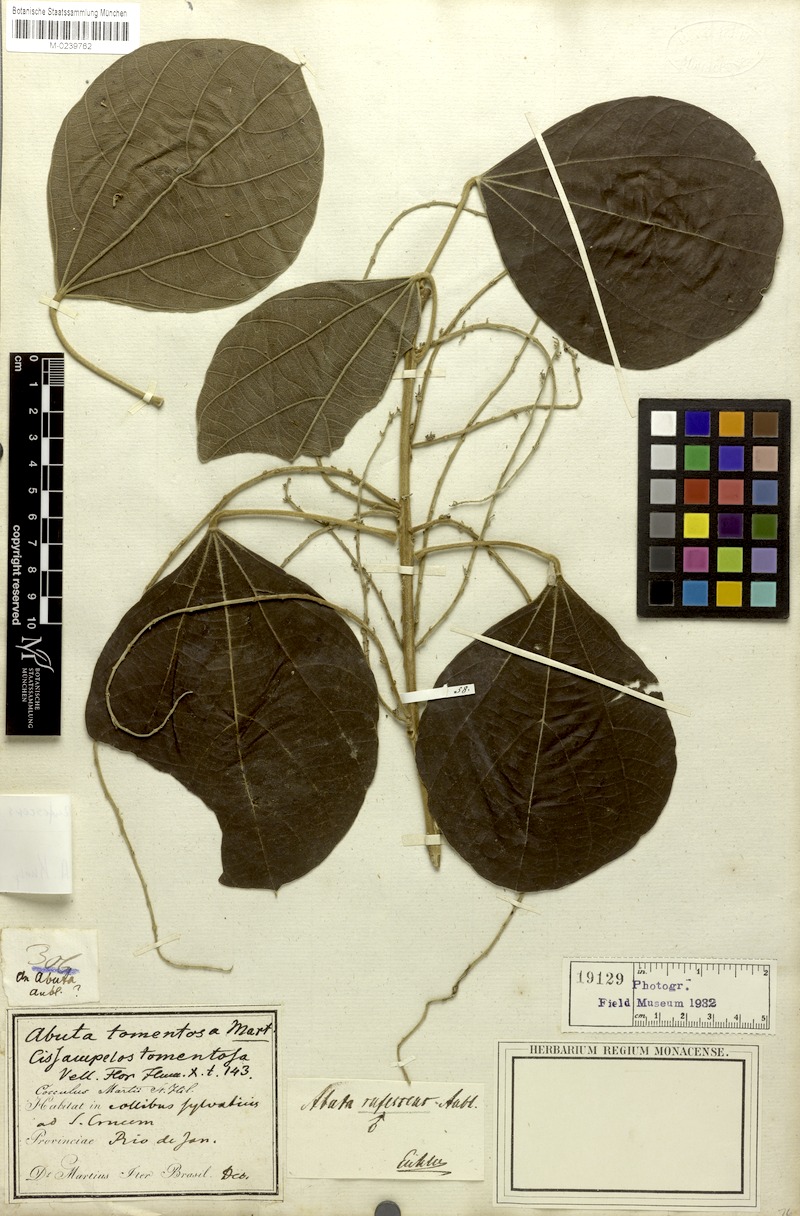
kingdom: Plantae
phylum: Tracheophyta
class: Magnoliopsida
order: Ranunculales
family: Menispermaceae
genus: Abuta
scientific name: Abuta rufescens
